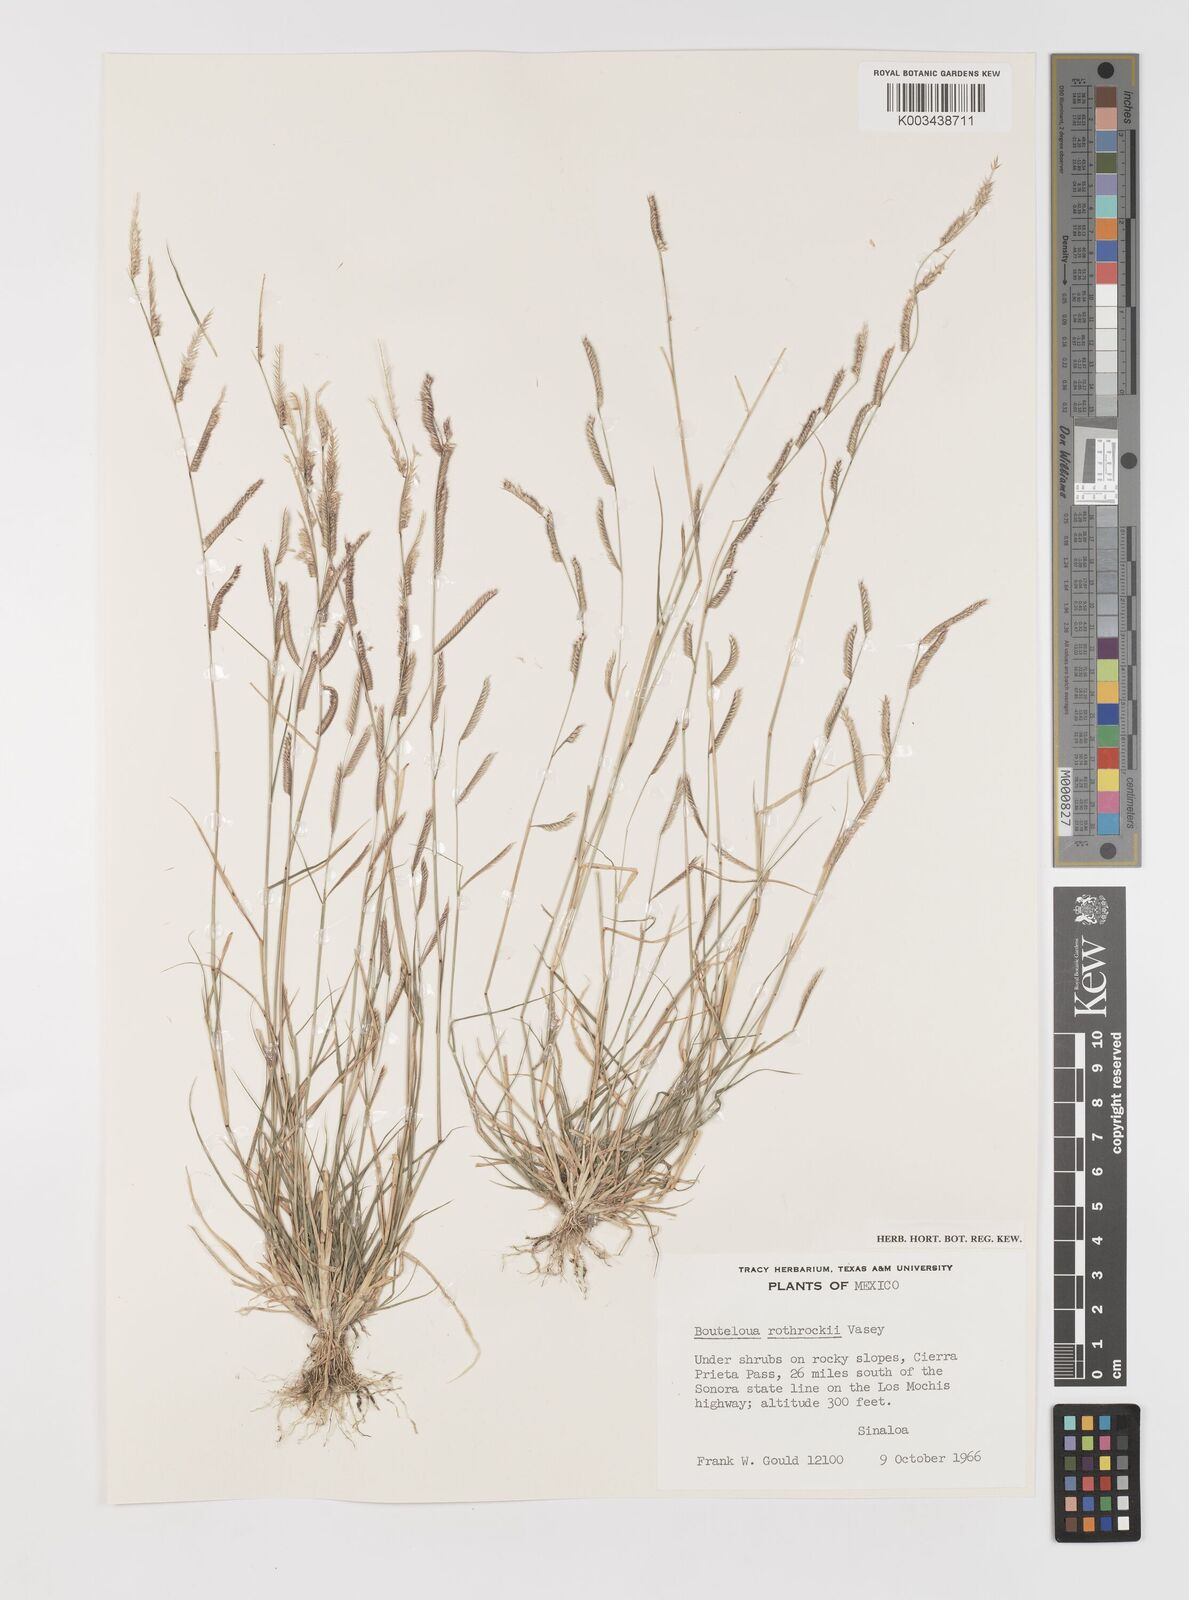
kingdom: Plantae
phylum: Tracheophyta
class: Liliopsida
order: Poales
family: Poaceae
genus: Bouteloua
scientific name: Bouteloua barbata
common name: Six-weeks grama
